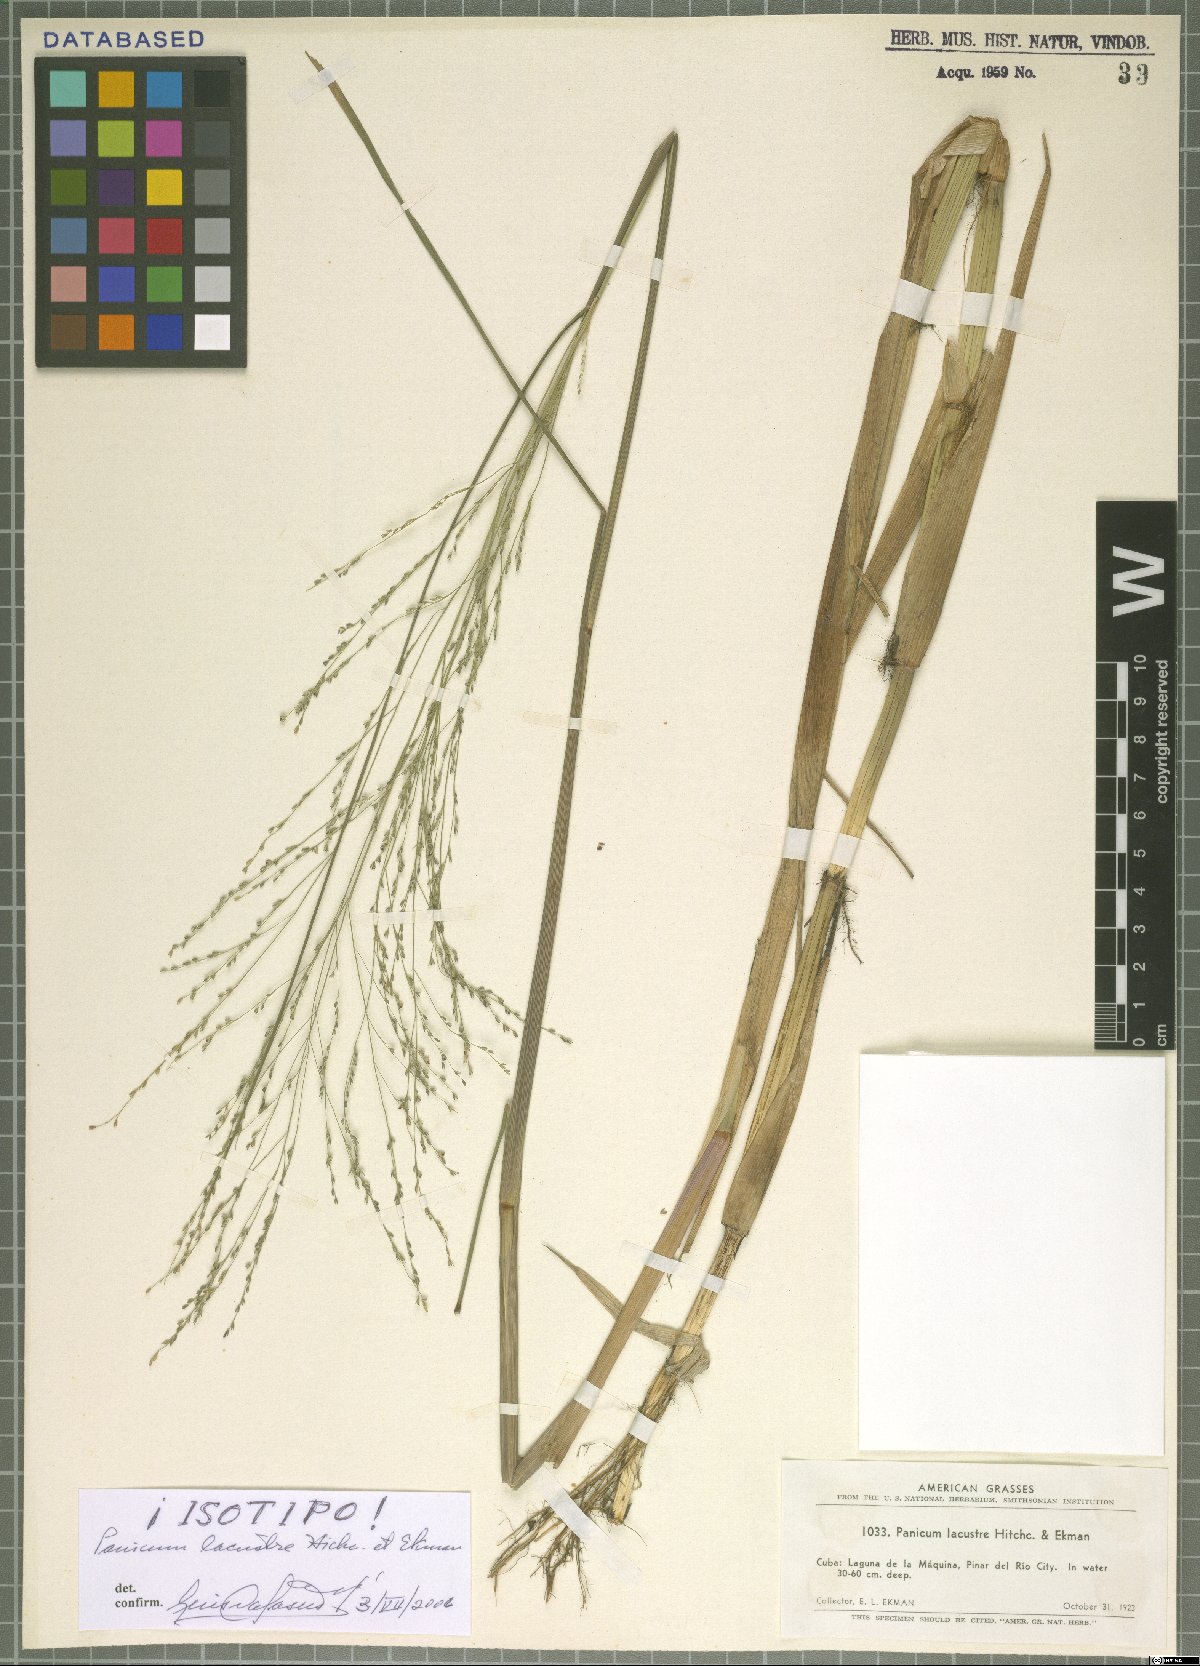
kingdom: Plantae
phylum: Tracheophyta
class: Liliopsida
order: Poales
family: Poaceae
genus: Panicum
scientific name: Panicum lacustre
